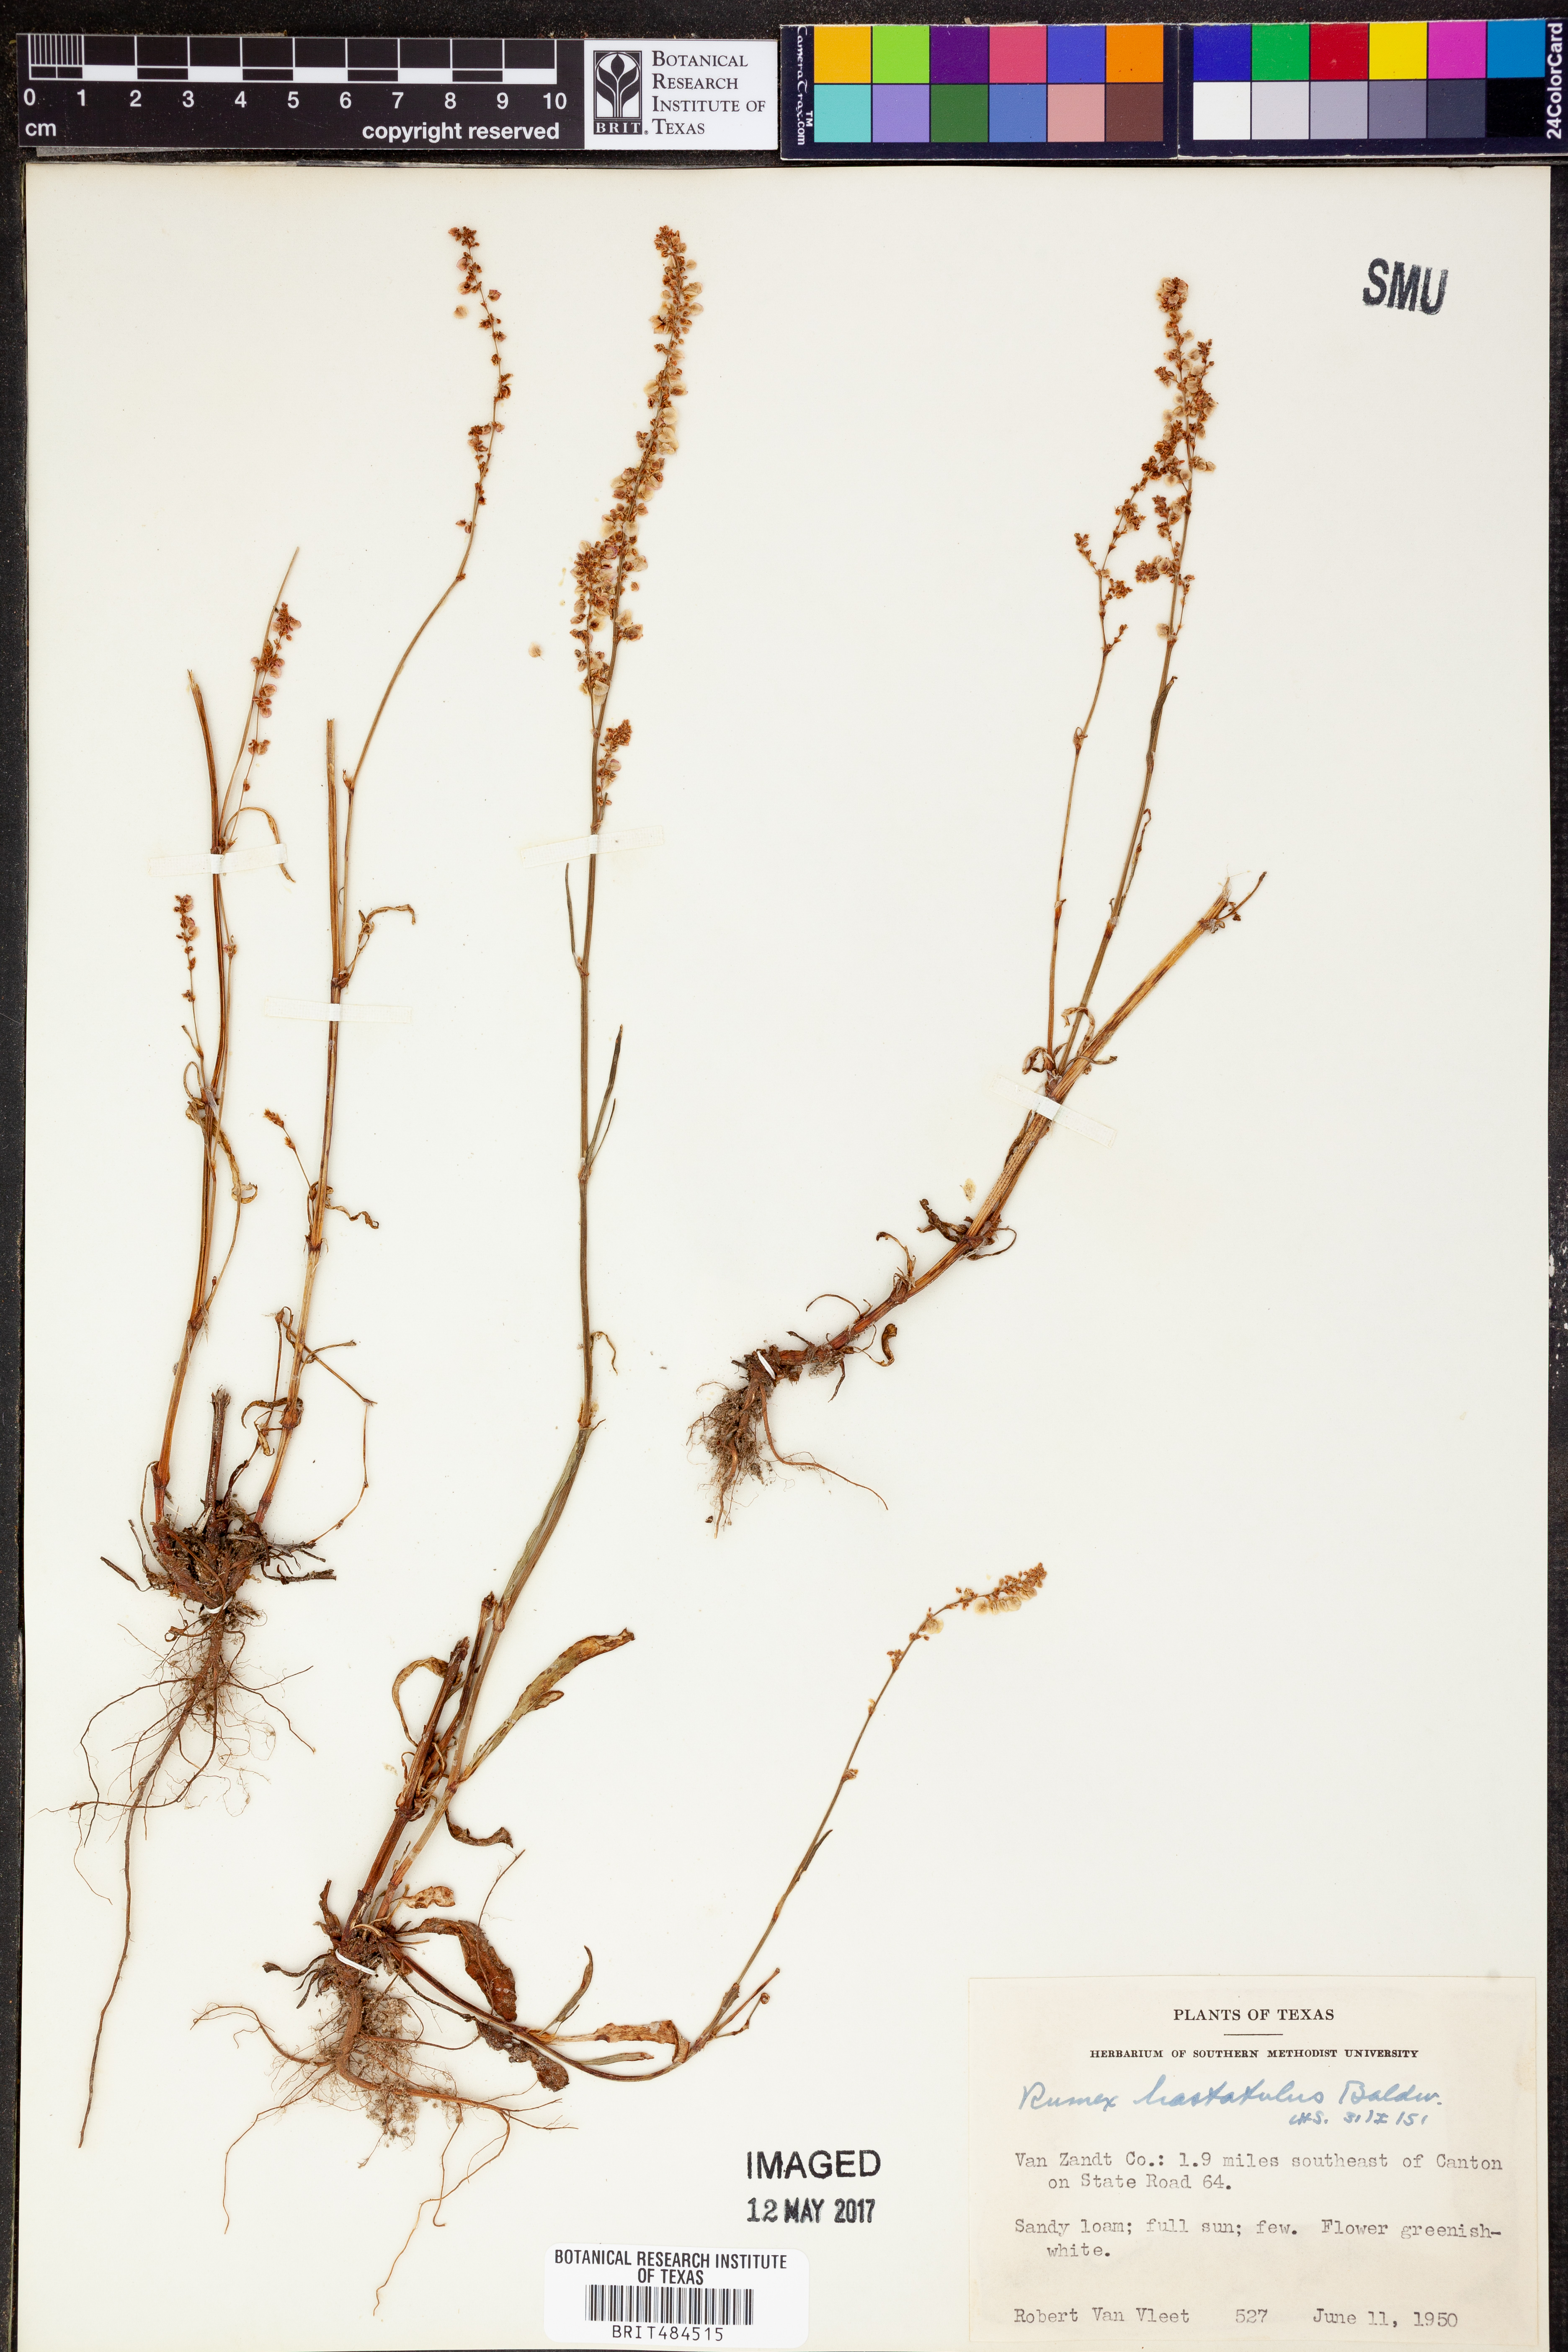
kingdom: Plantae
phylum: Tracheophyta
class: Magnoliopsida
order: Caryophyllales
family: Polygonaceae
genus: Rumex
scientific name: Rumex hastatulus
